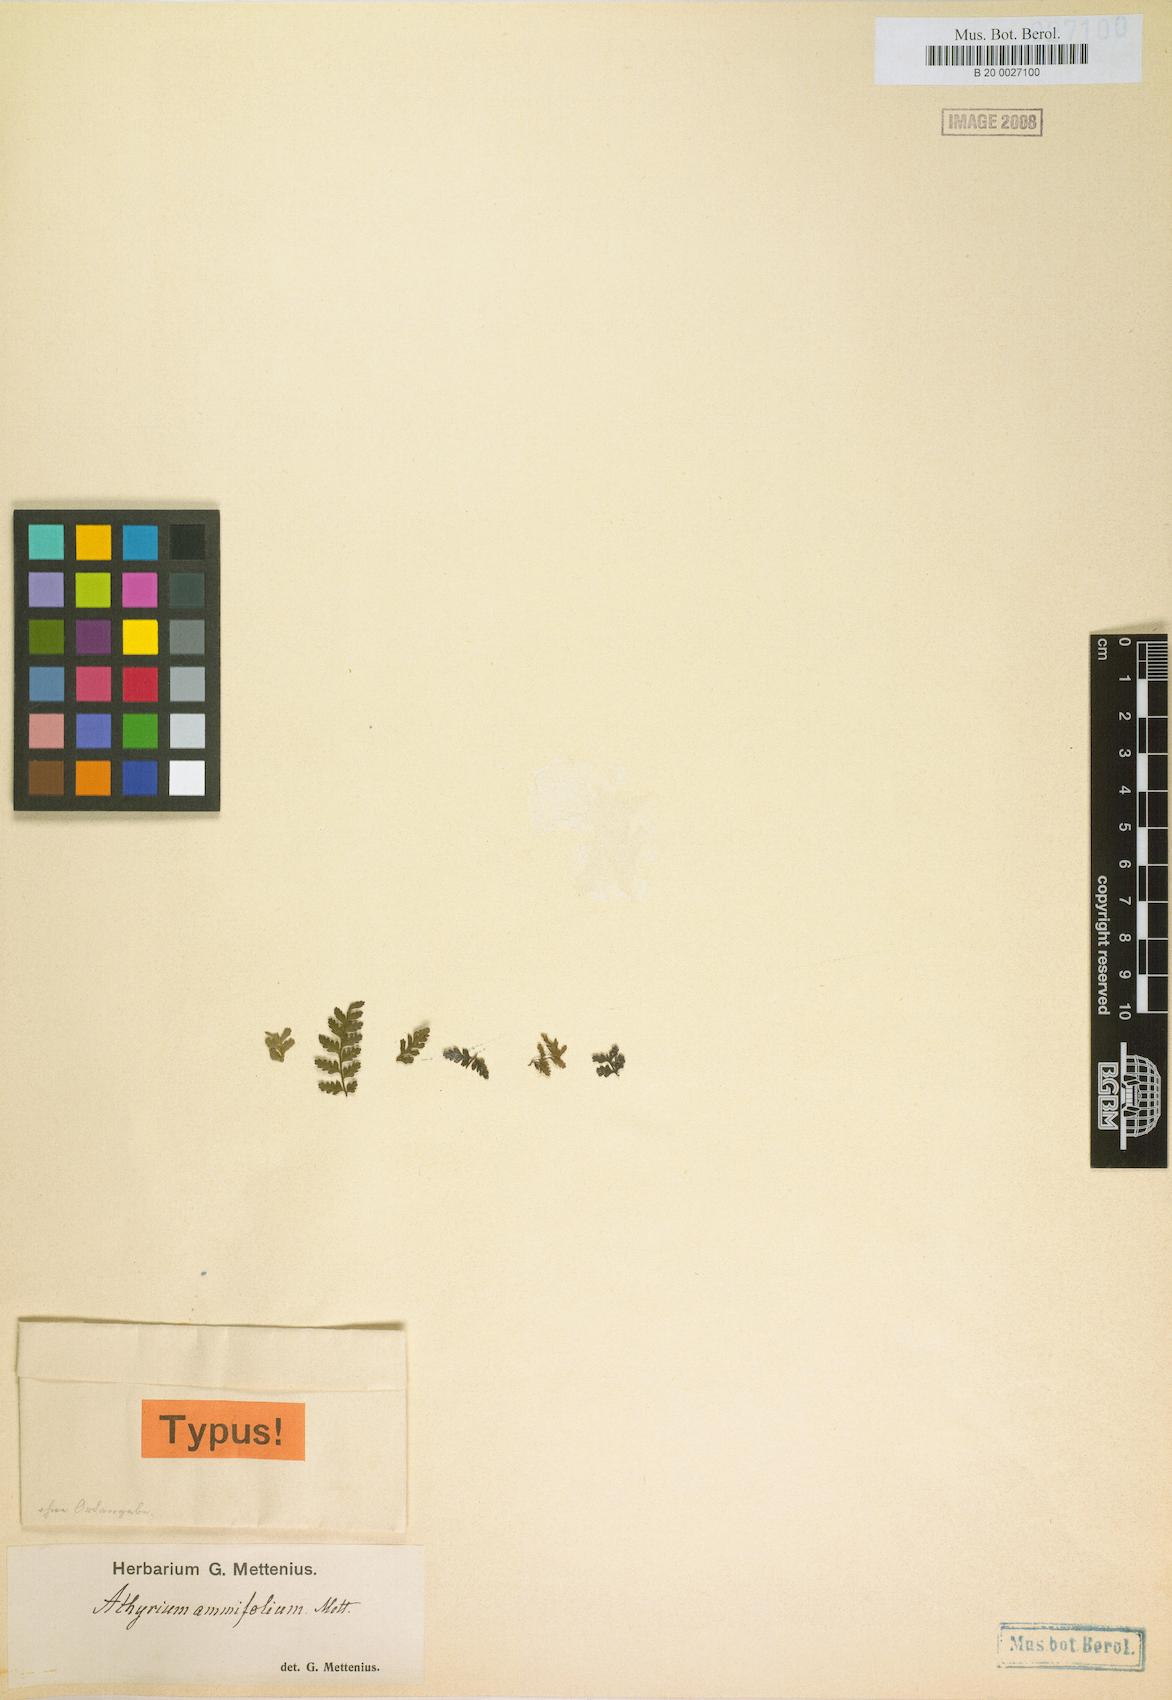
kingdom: Plantae
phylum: Tracheophyta
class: Polypodiopsida
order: Polypodiales
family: Athyriaceae
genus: Athyrium
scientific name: Athyrium ammifolium
